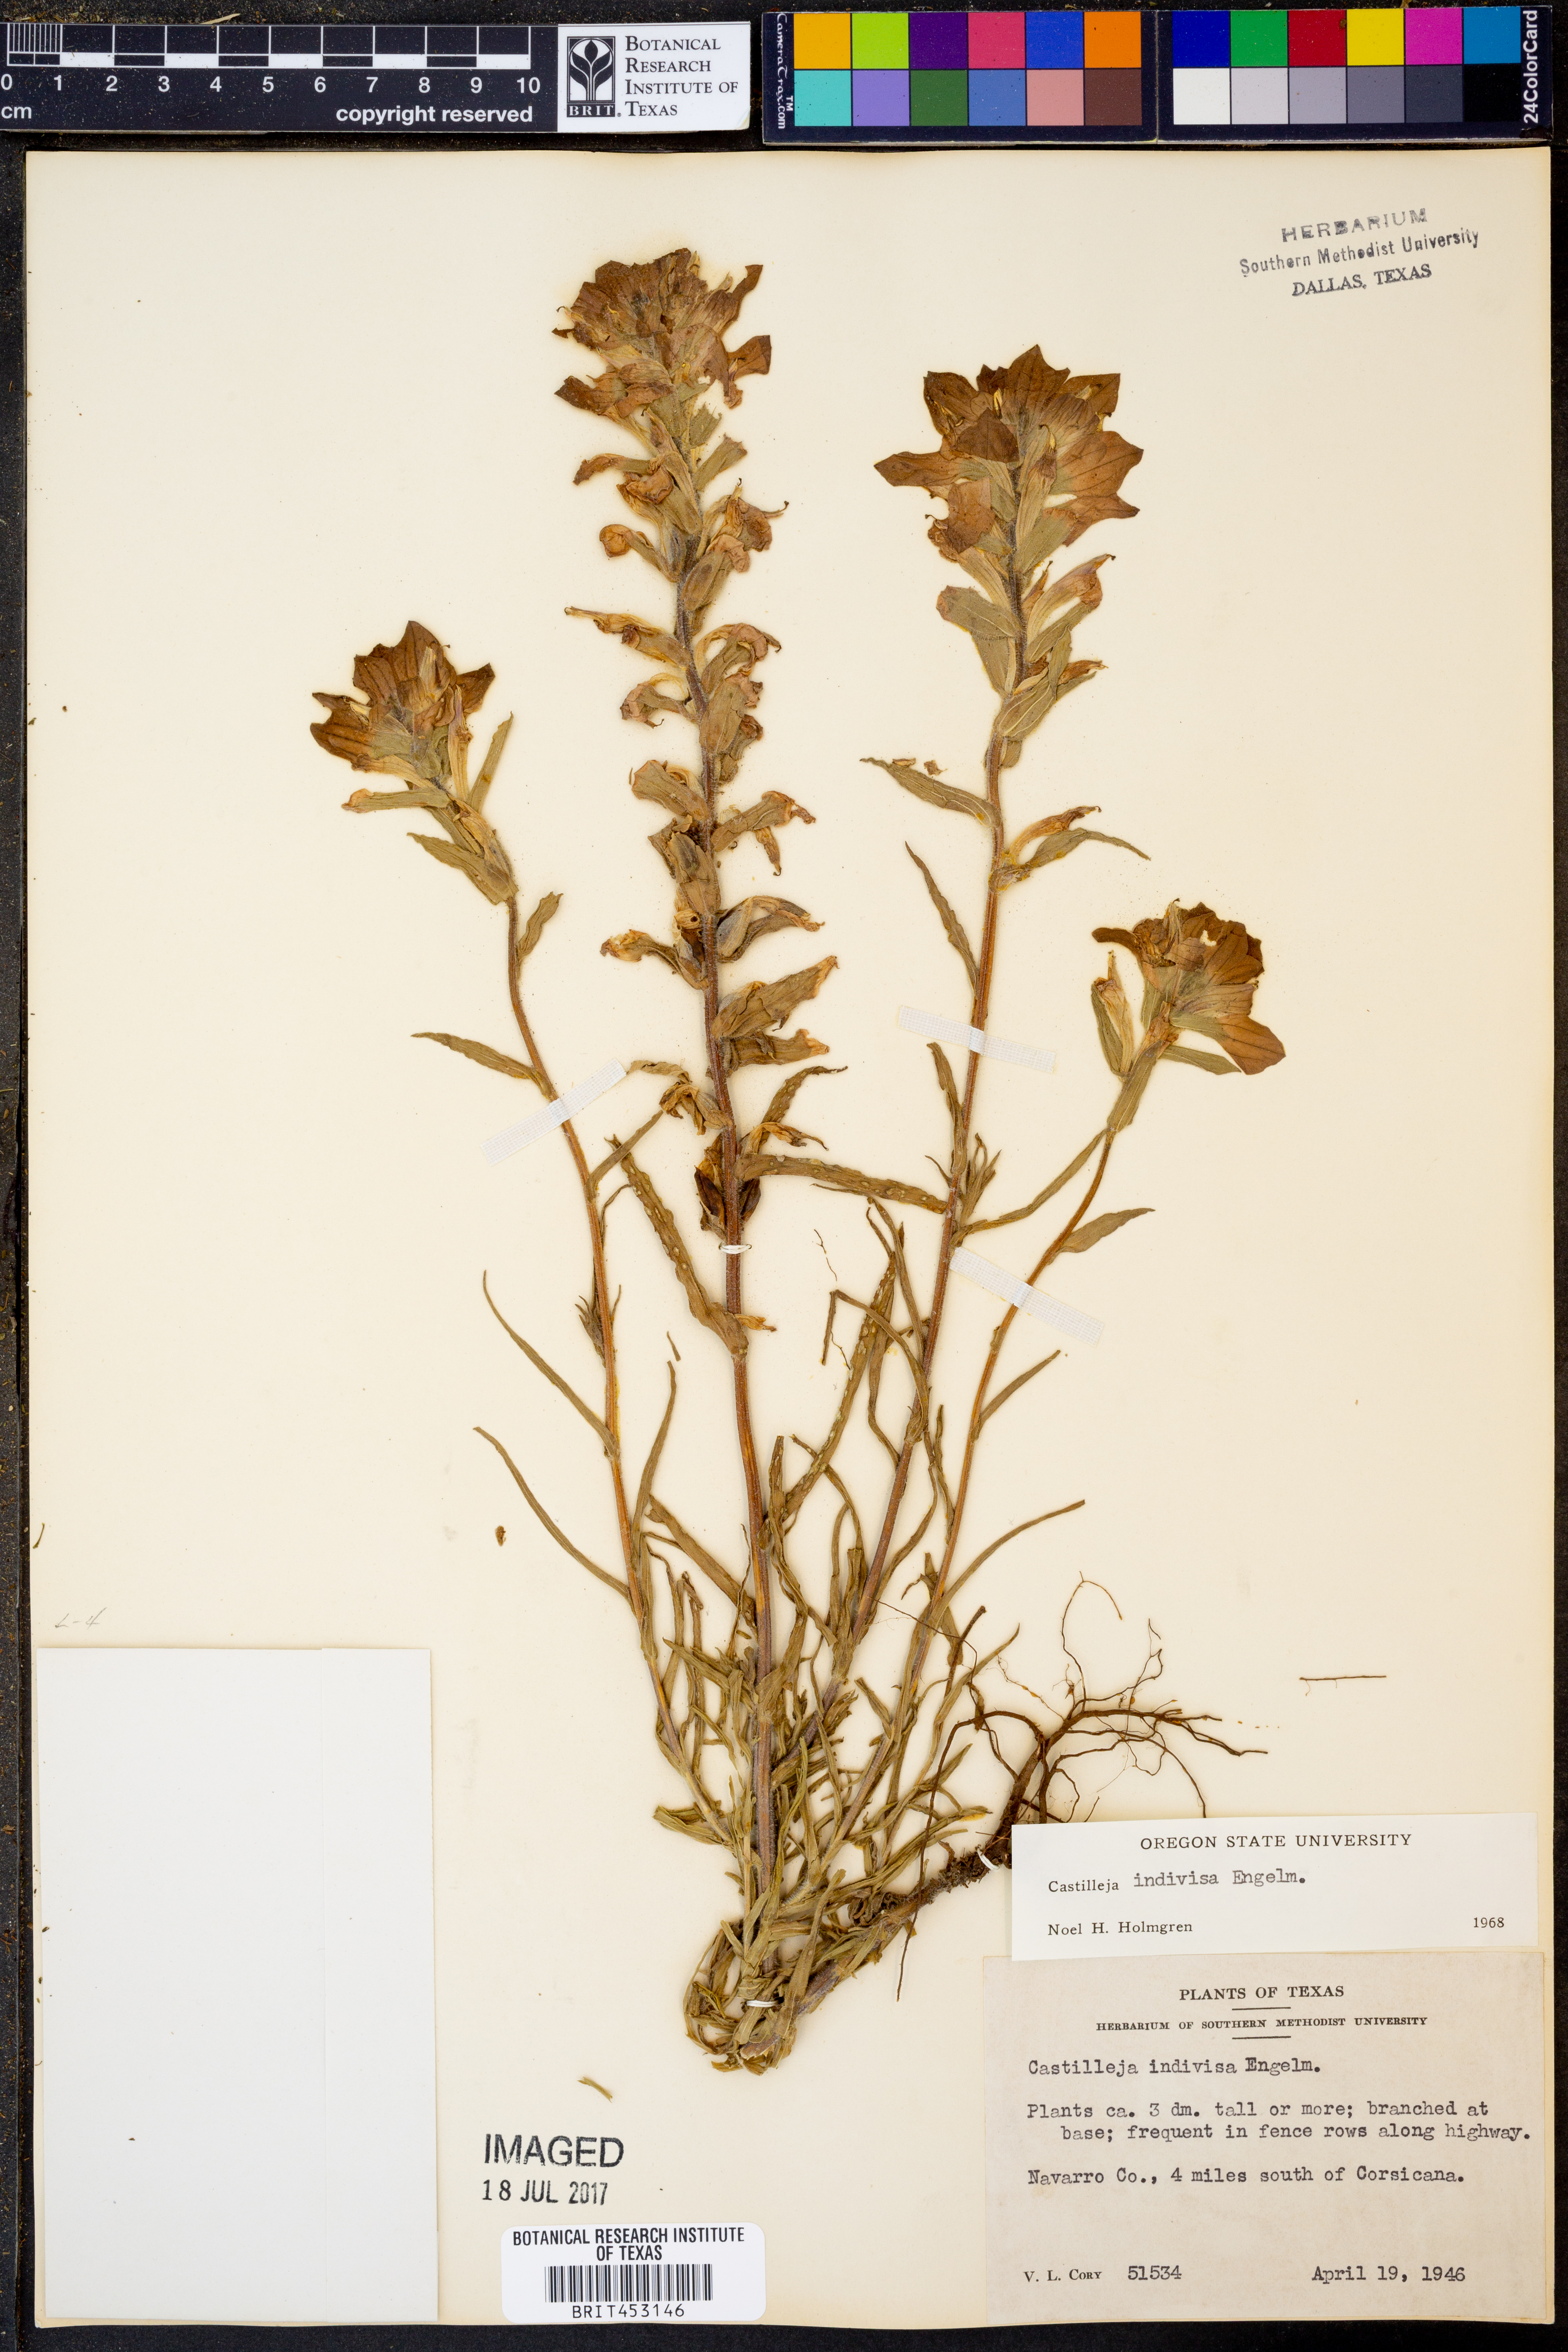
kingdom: Plantae
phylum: Tracheophyta
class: Magnoliopsida
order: Lamiales
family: Orobanchaceae
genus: Castilleja
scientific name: Castilleja indivisa
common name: Texas paintbrush
